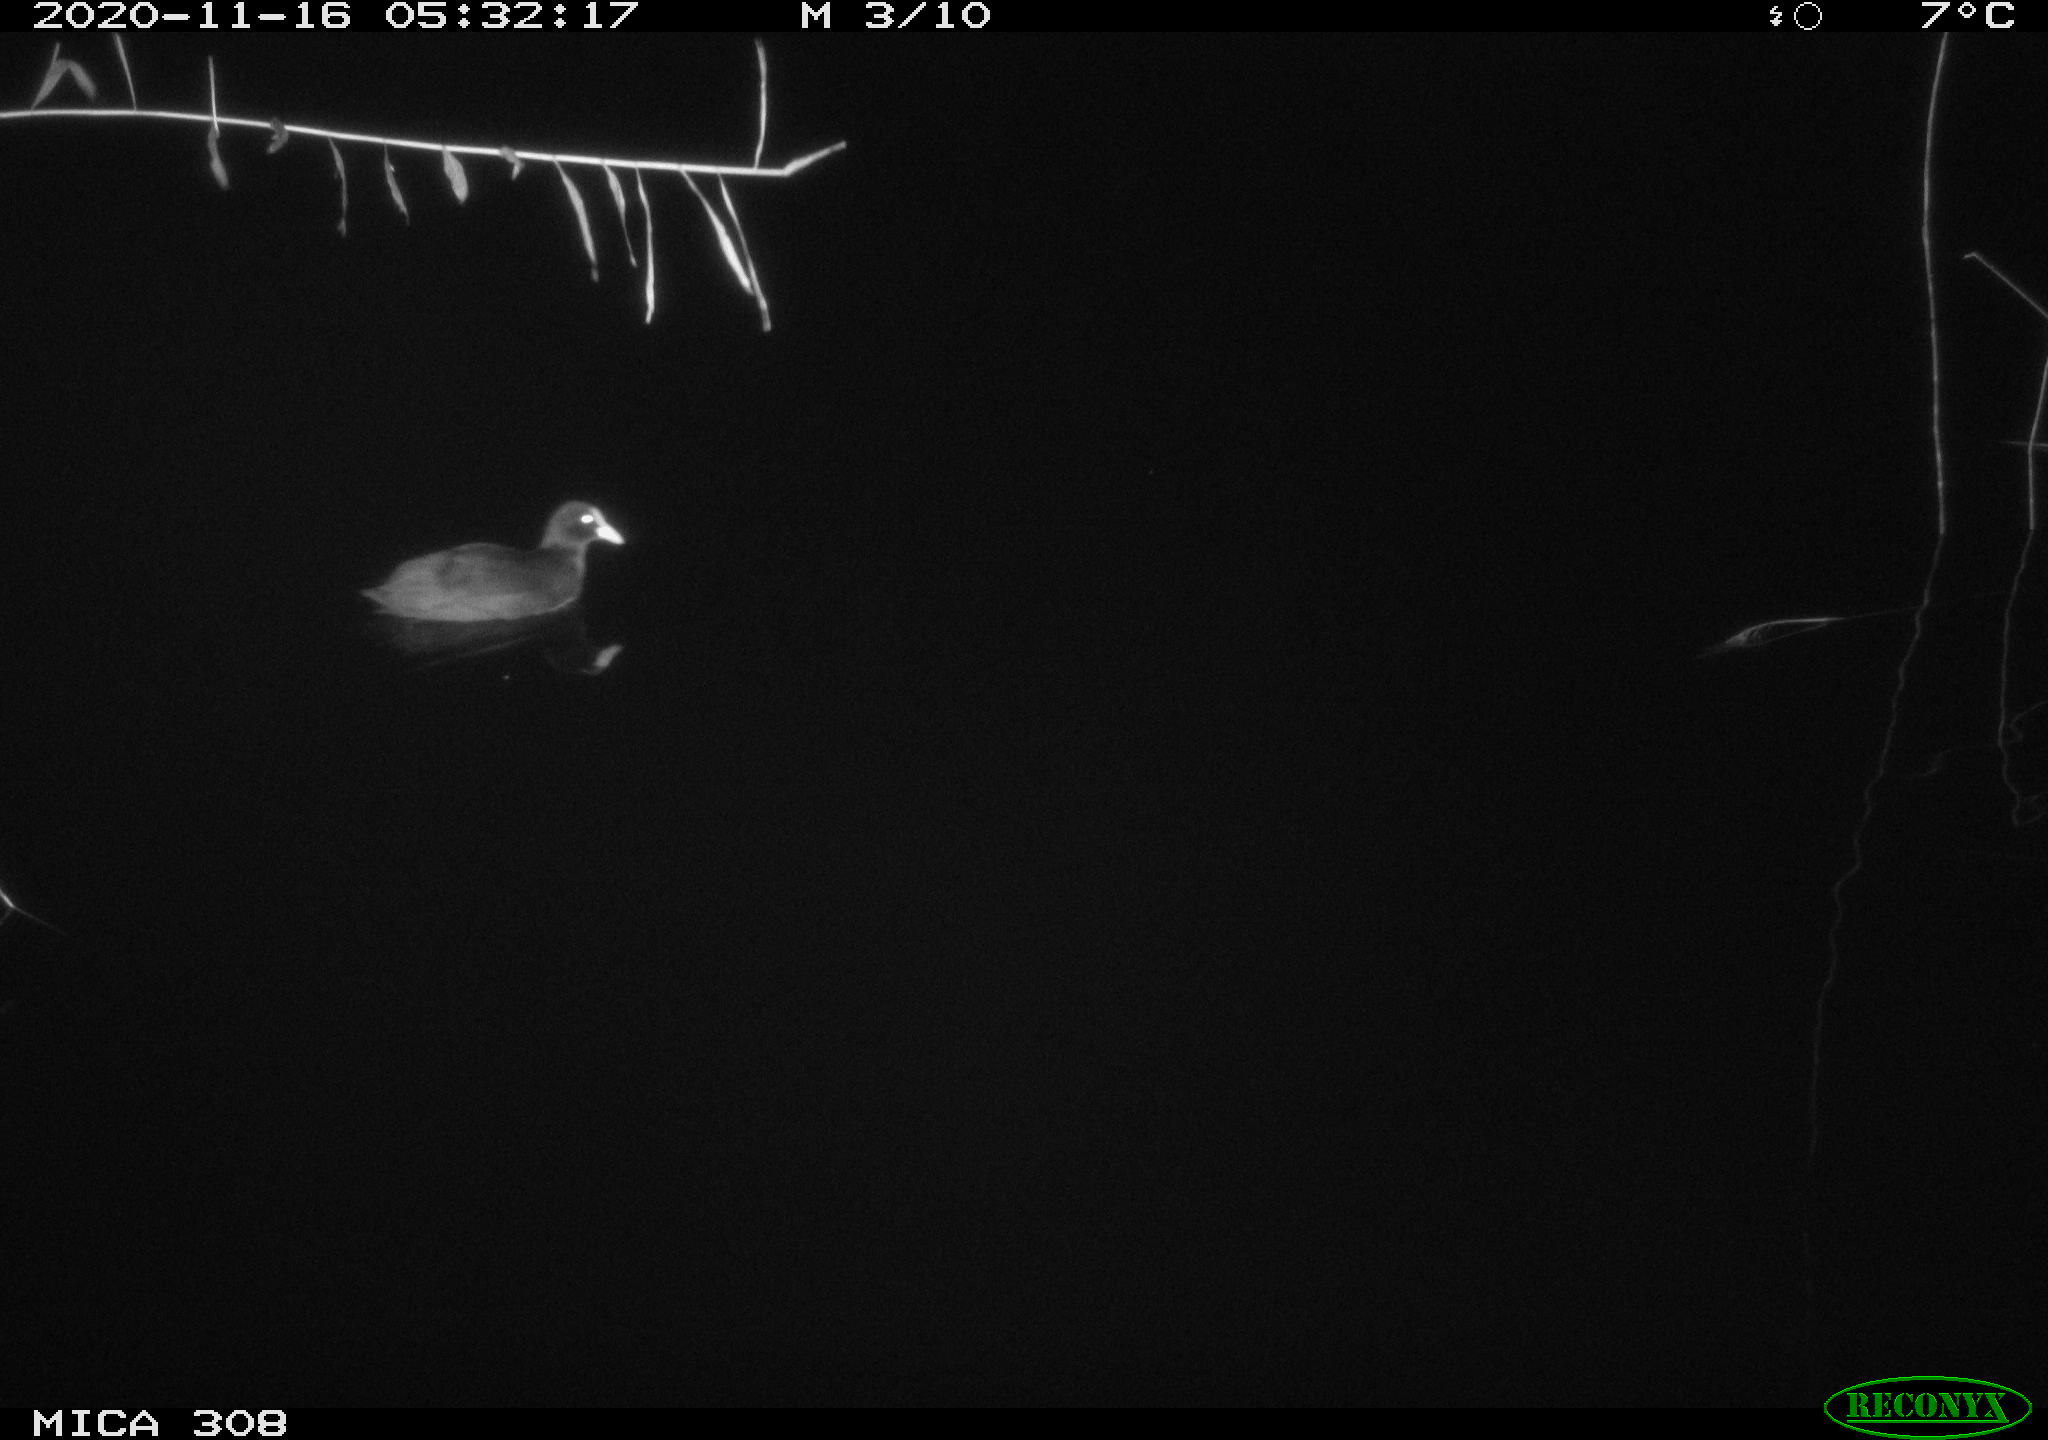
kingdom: Animalia
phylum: Chordata
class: Aves
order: Gruiformes
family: Rallidae
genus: Fulica
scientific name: Fulica atra
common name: Eurasian coot
